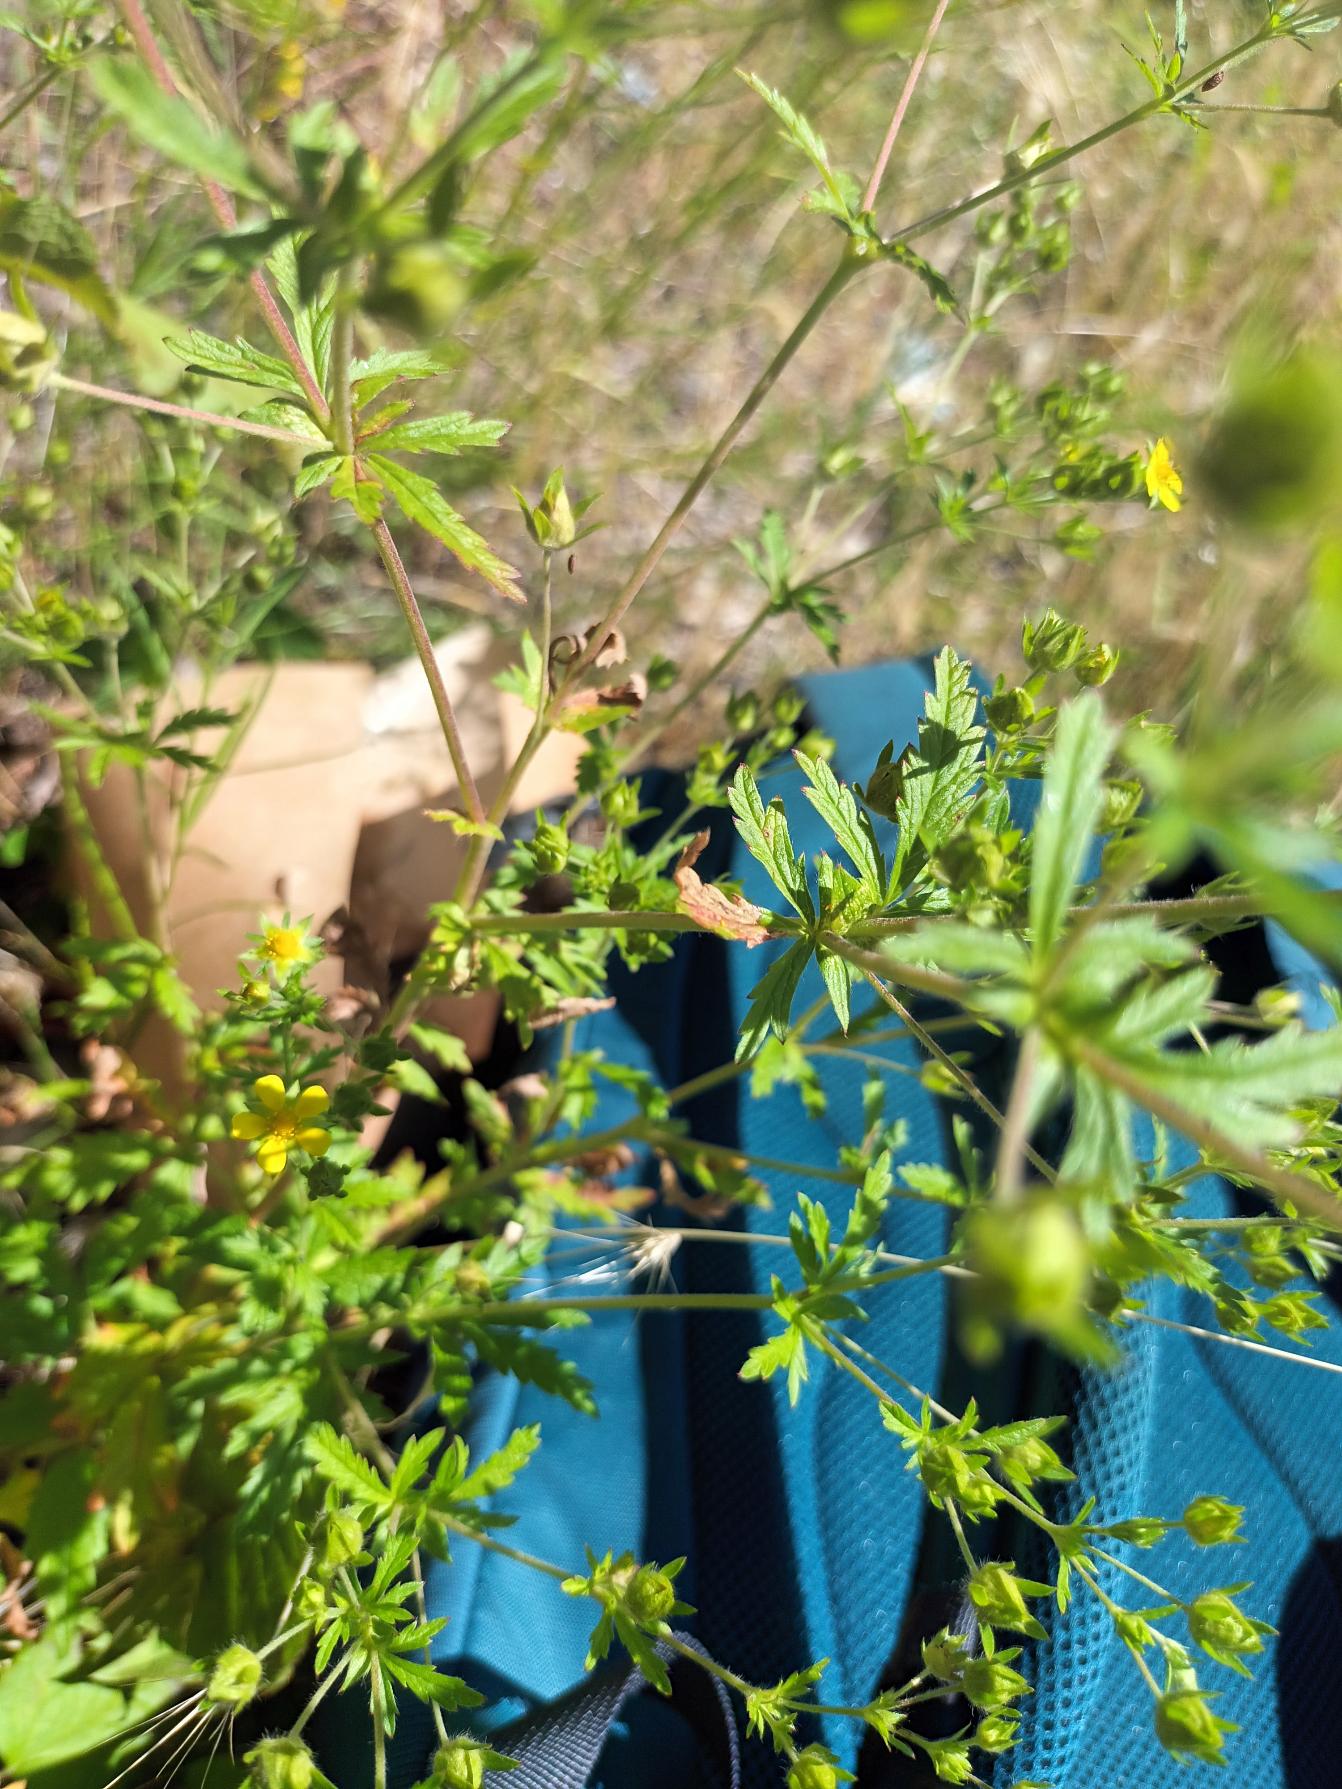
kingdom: Plantae
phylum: Tracheophyta
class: Magnoliopsida
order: Rosales
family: Rosaceae
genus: Potentilla
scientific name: Potentilla intermedia
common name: Småblomstret potentil
